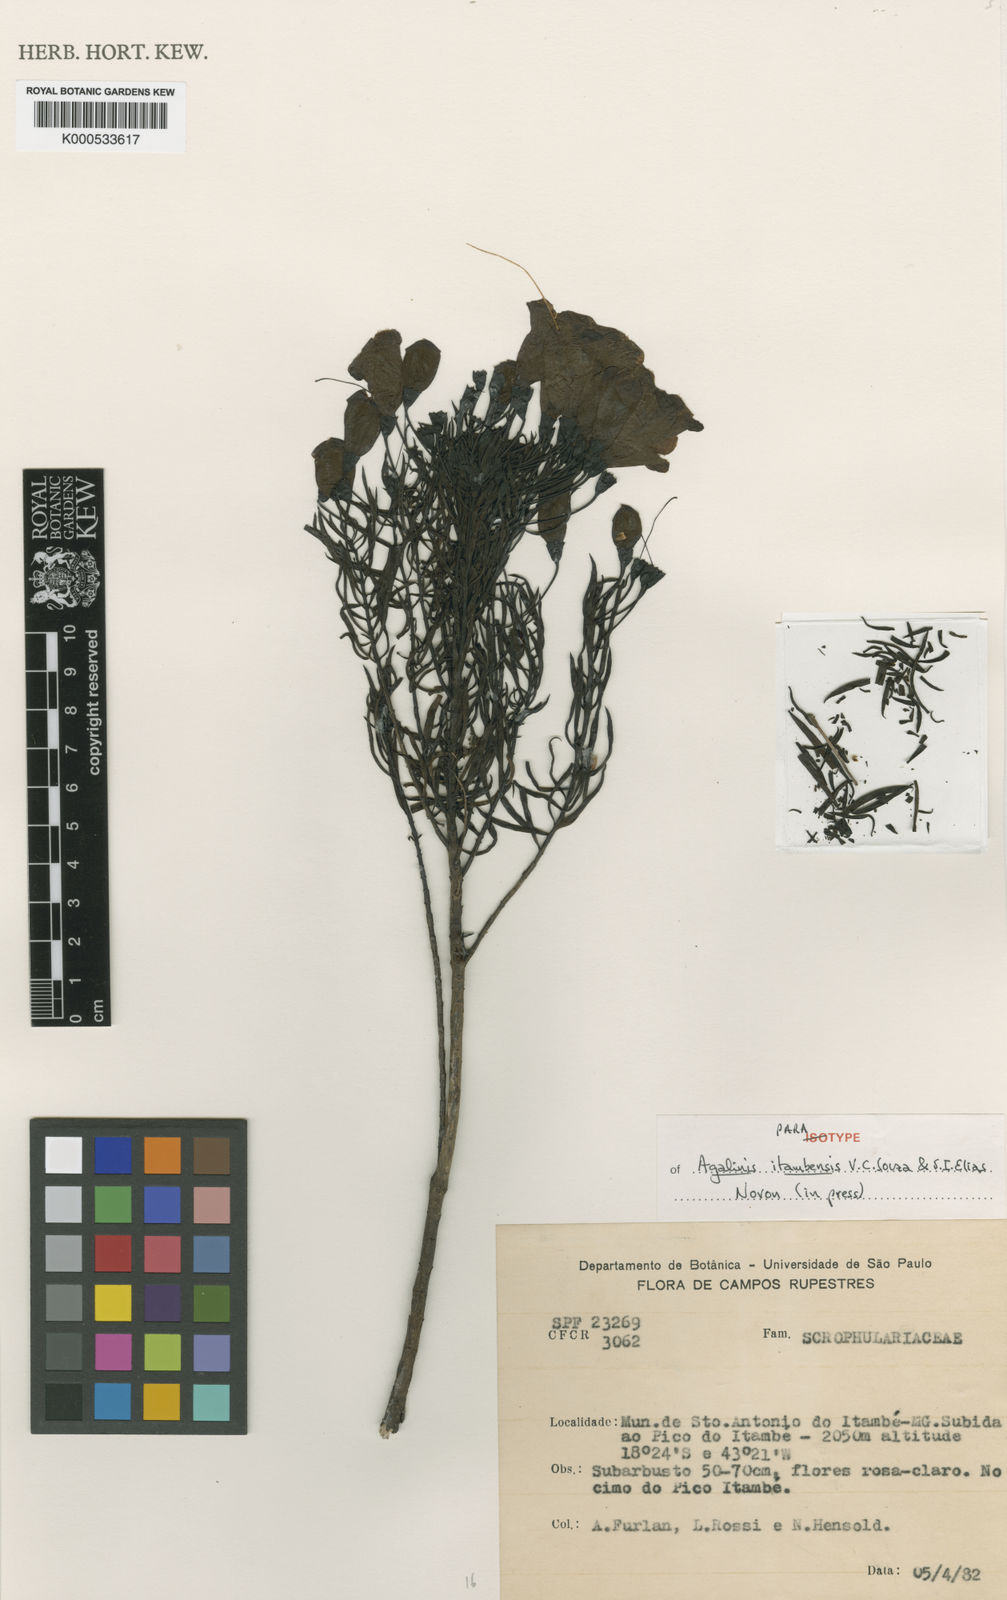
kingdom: Plantae
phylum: Tracheophyta
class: Magnoliopsida
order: Lamiales
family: Orobanchaceae
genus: Agalinis
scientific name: Agalinis itambensis
